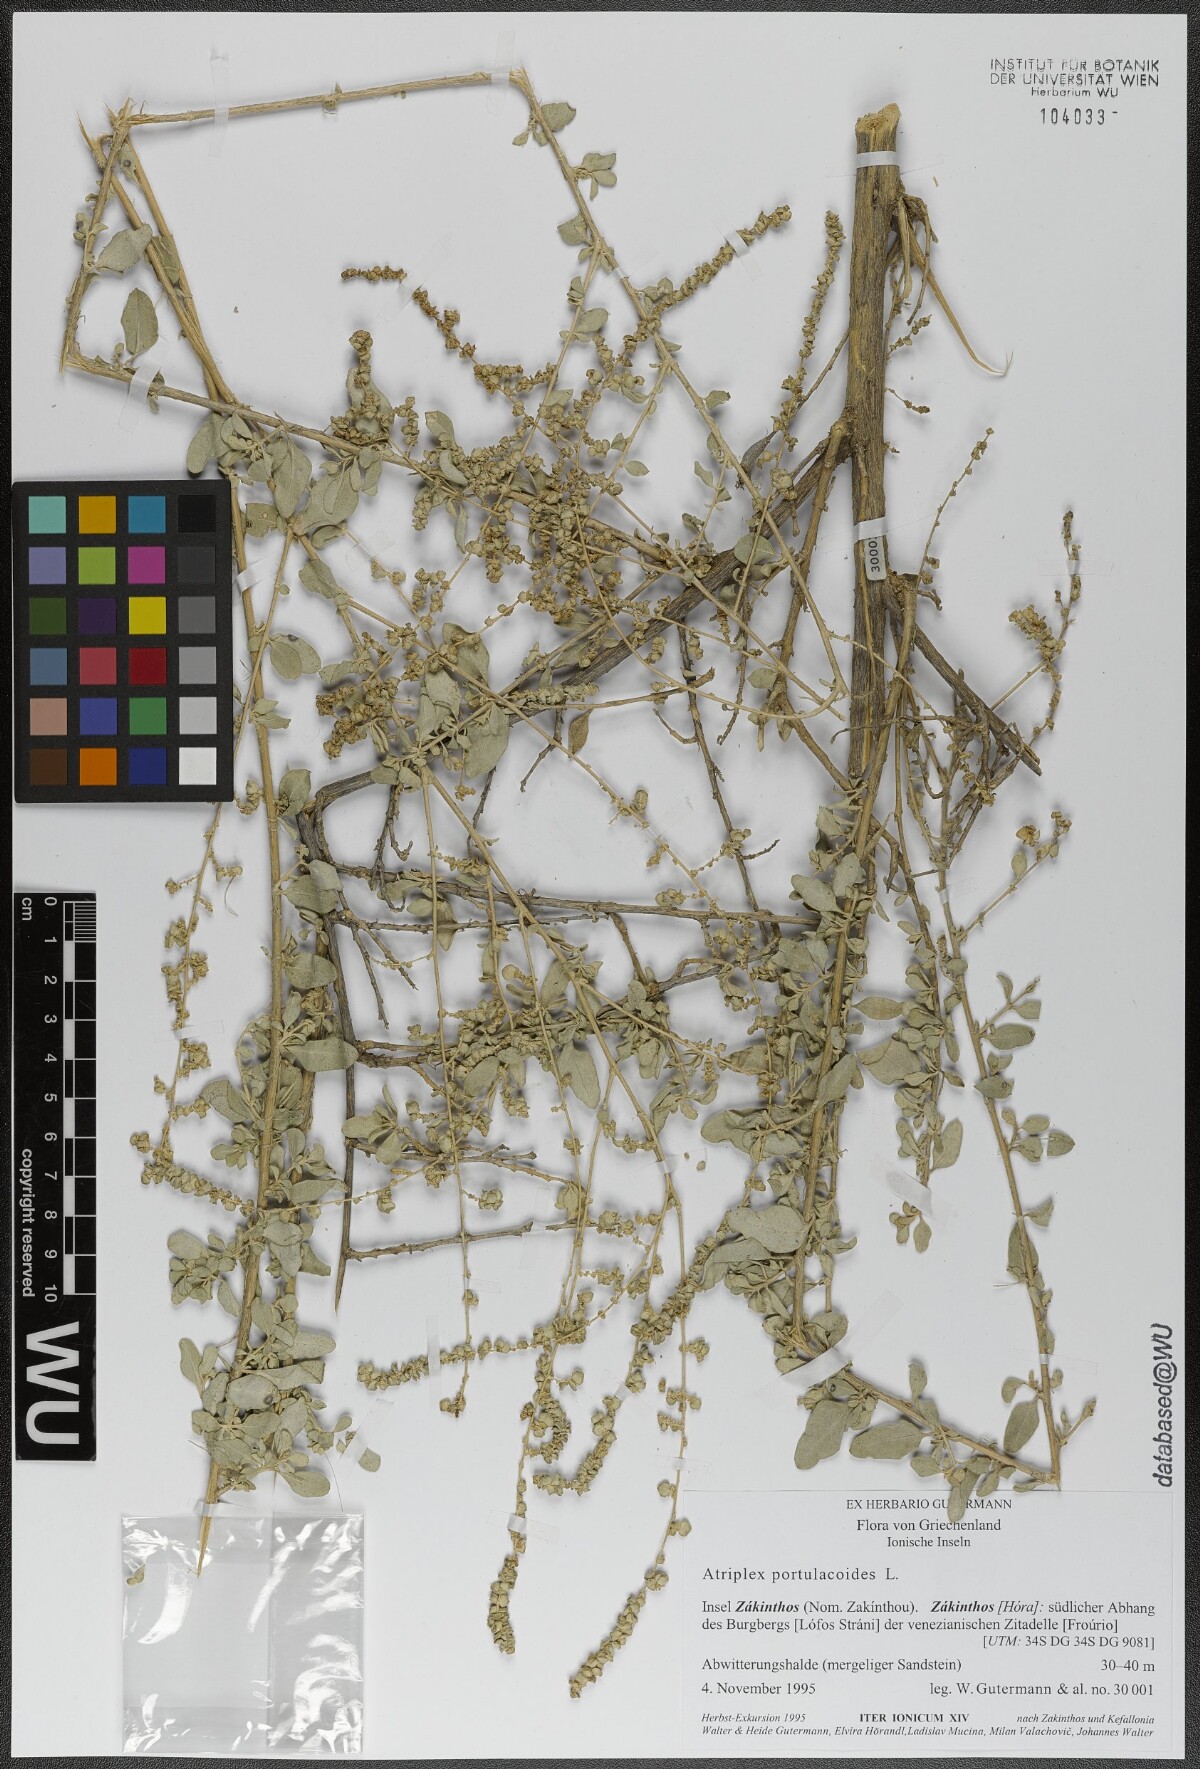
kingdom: Plantae
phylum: Tracheophyta
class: Magnoliopsida
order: Caryophyllales
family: Amaranthaceae
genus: Halimione
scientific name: Halimione portulacoides
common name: Sea-purslane
